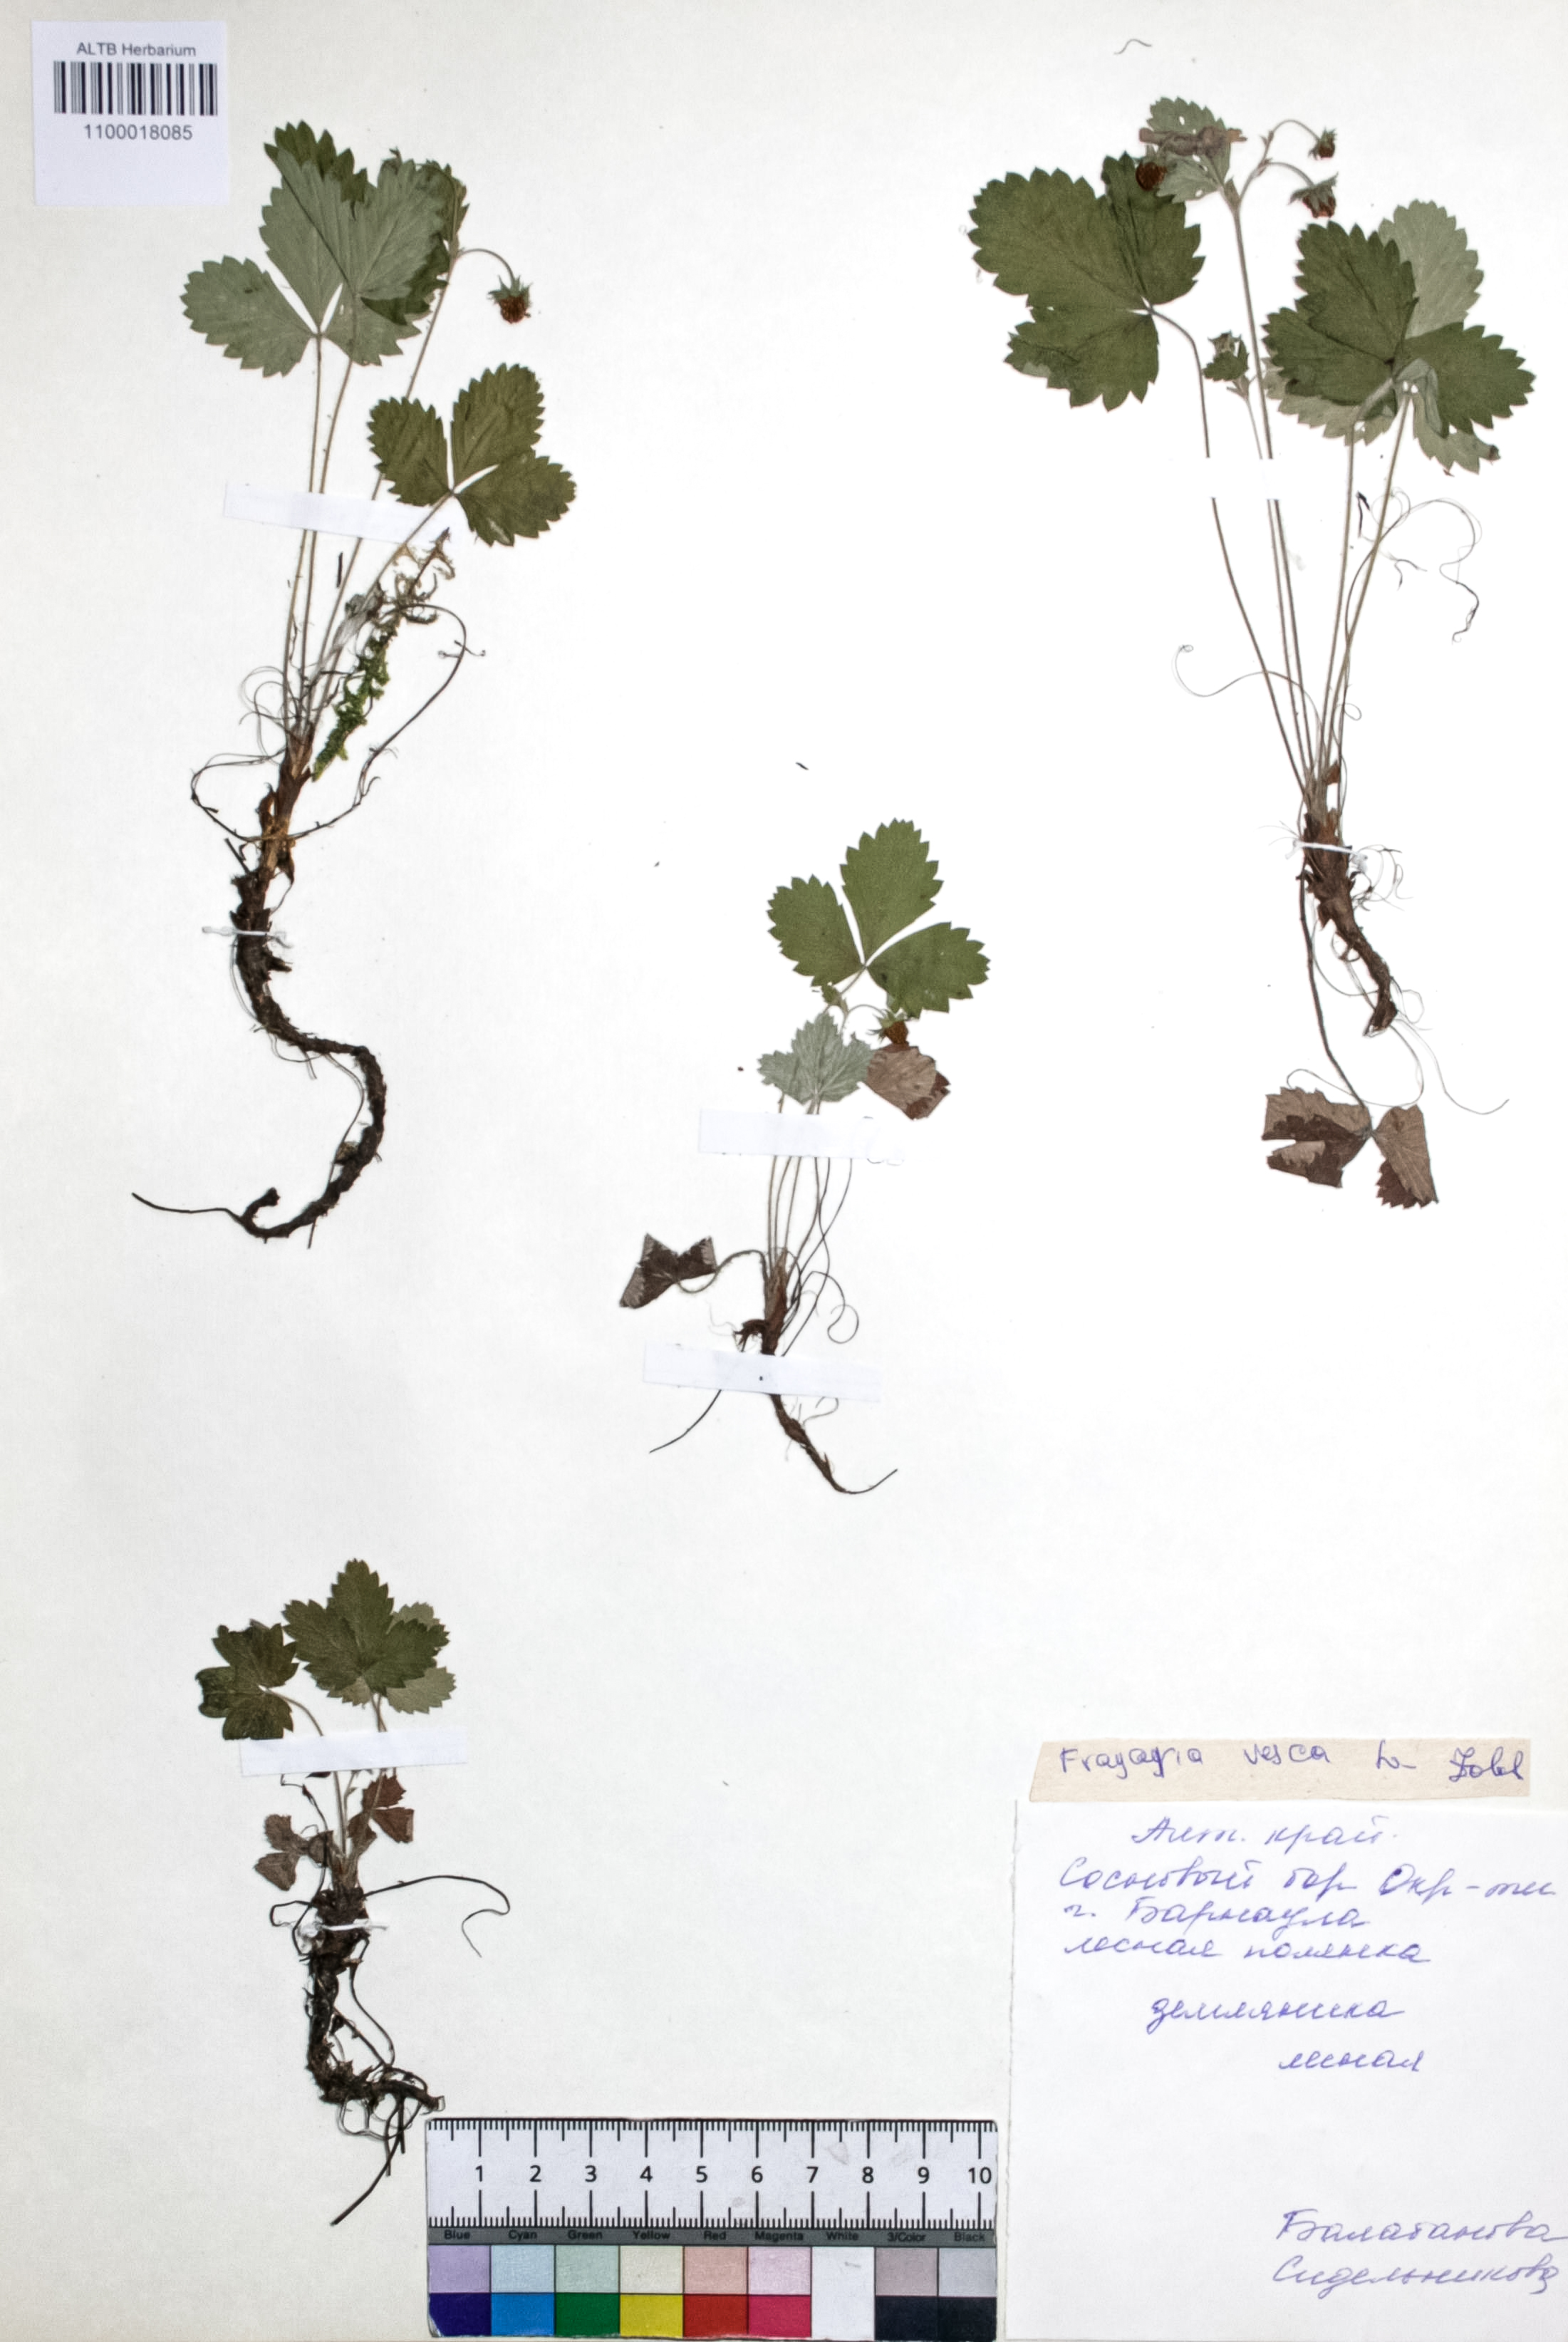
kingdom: Plantae
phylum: Tracheophyta
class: Magnoliopsida
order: Rosales
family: Rosaceae
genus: Fragaria
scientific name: Fragaria vesca
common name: Wild strawberry
